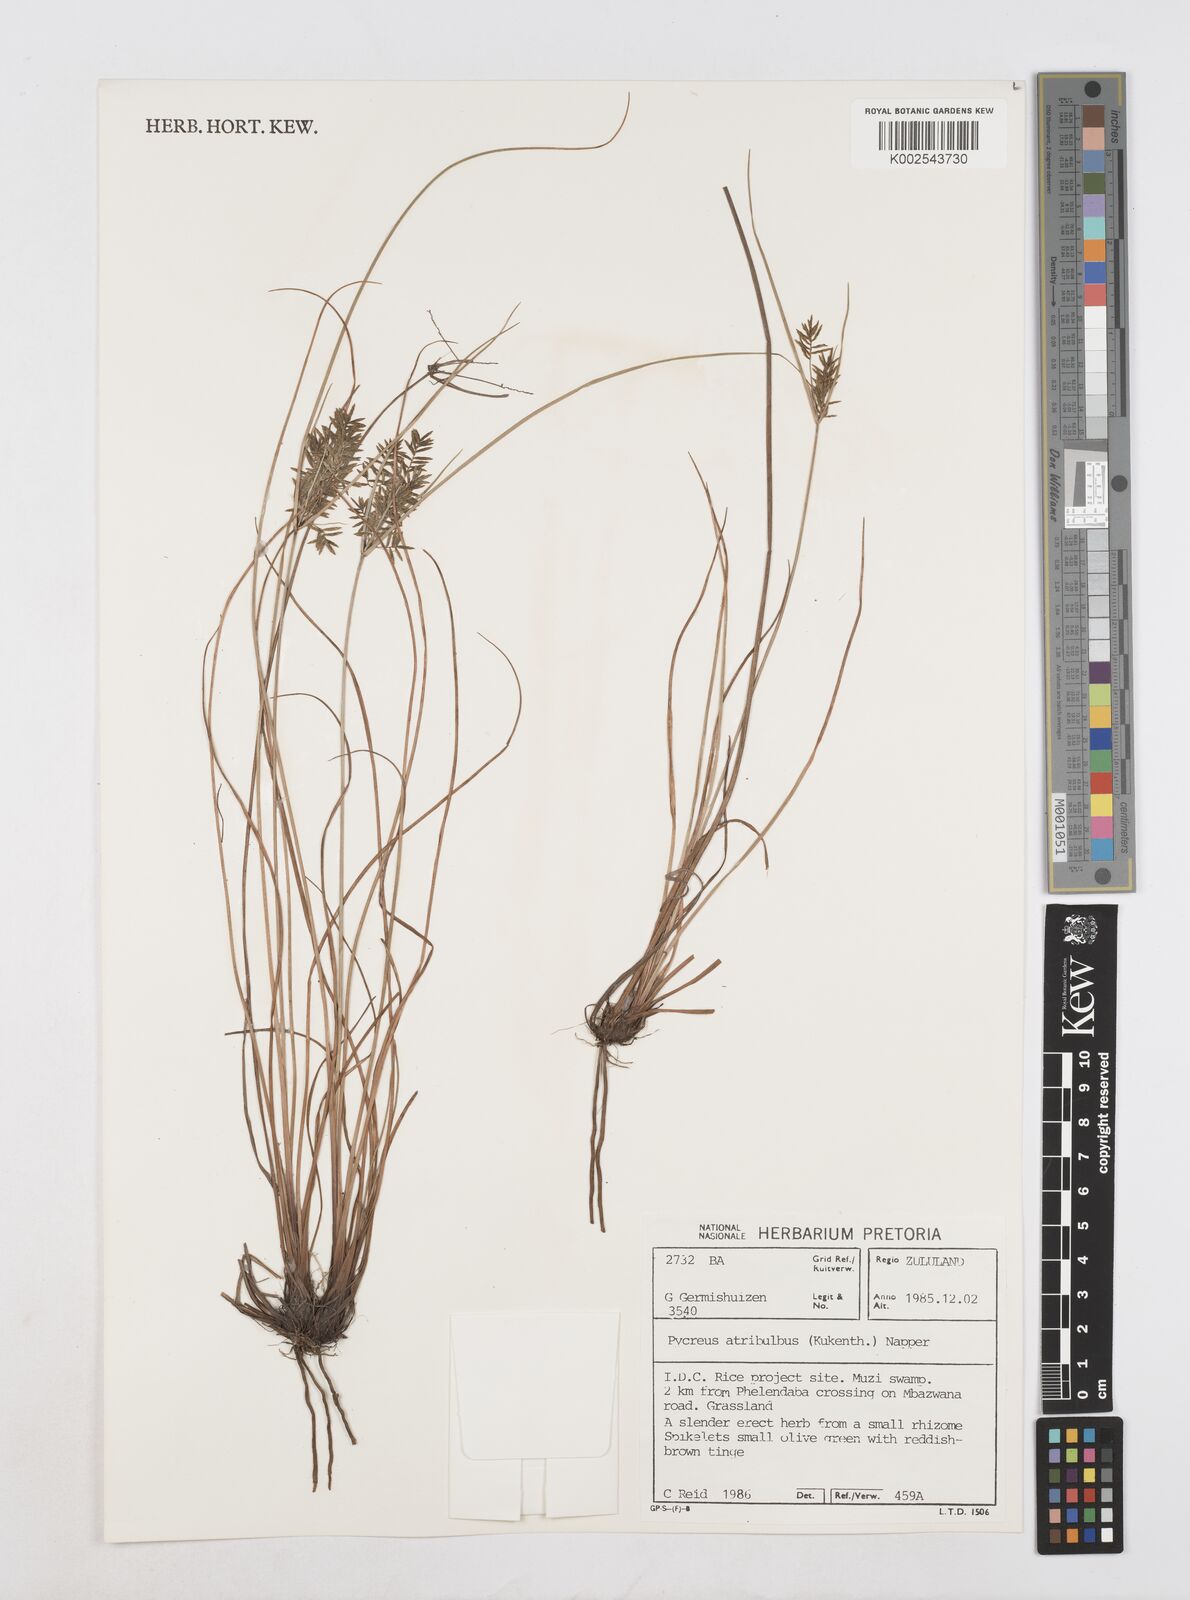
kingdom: Plantae
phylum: Tracheophyta
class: Liliopsida
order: Poales
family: Cyperaceae
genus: Cyperus
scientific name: Cyperus intactus
